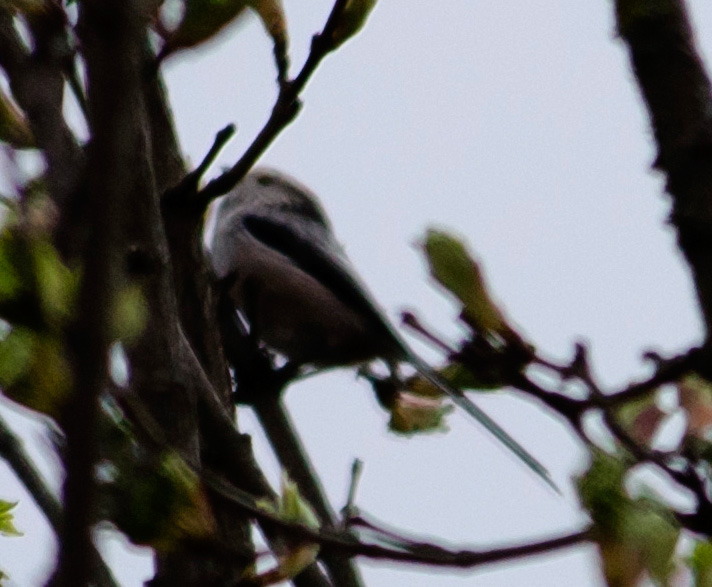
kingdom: Animalia
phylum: Chordata
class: Aves
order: Passeriformes
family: Aegithalidae
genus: Aegithalos
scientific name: Aegithalos caudatus
